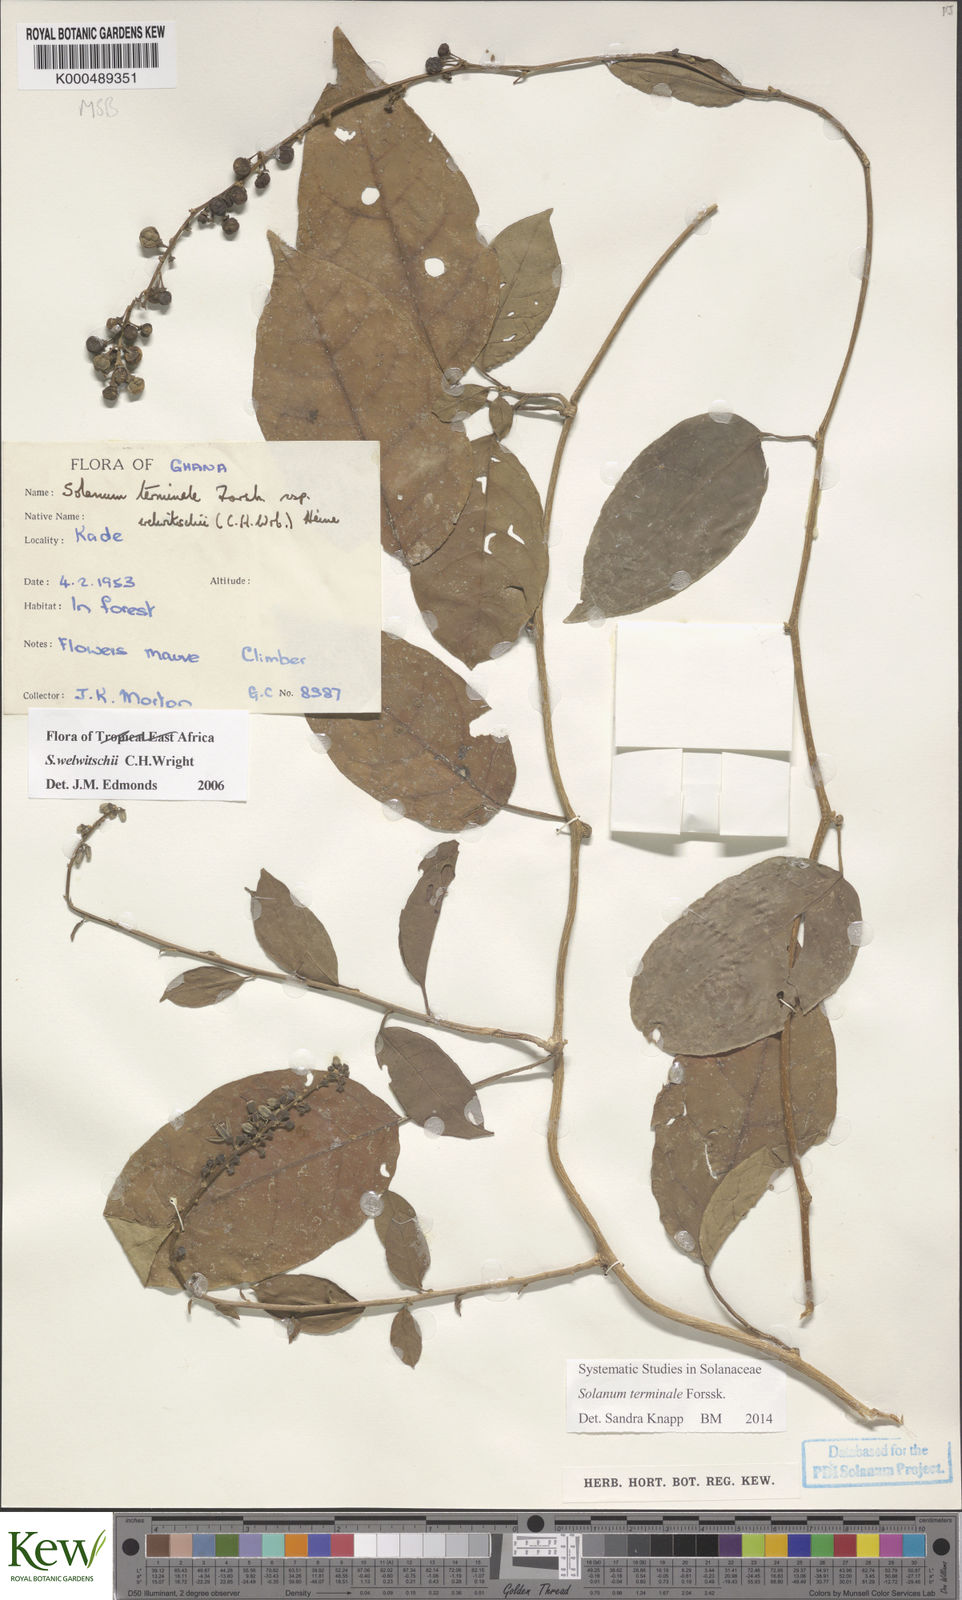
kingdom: Plantae
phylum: Tracheophyta
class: Magnoliopsida
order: Solanales
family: Solanaceae
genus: Solanum
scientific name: Solanum terminale
